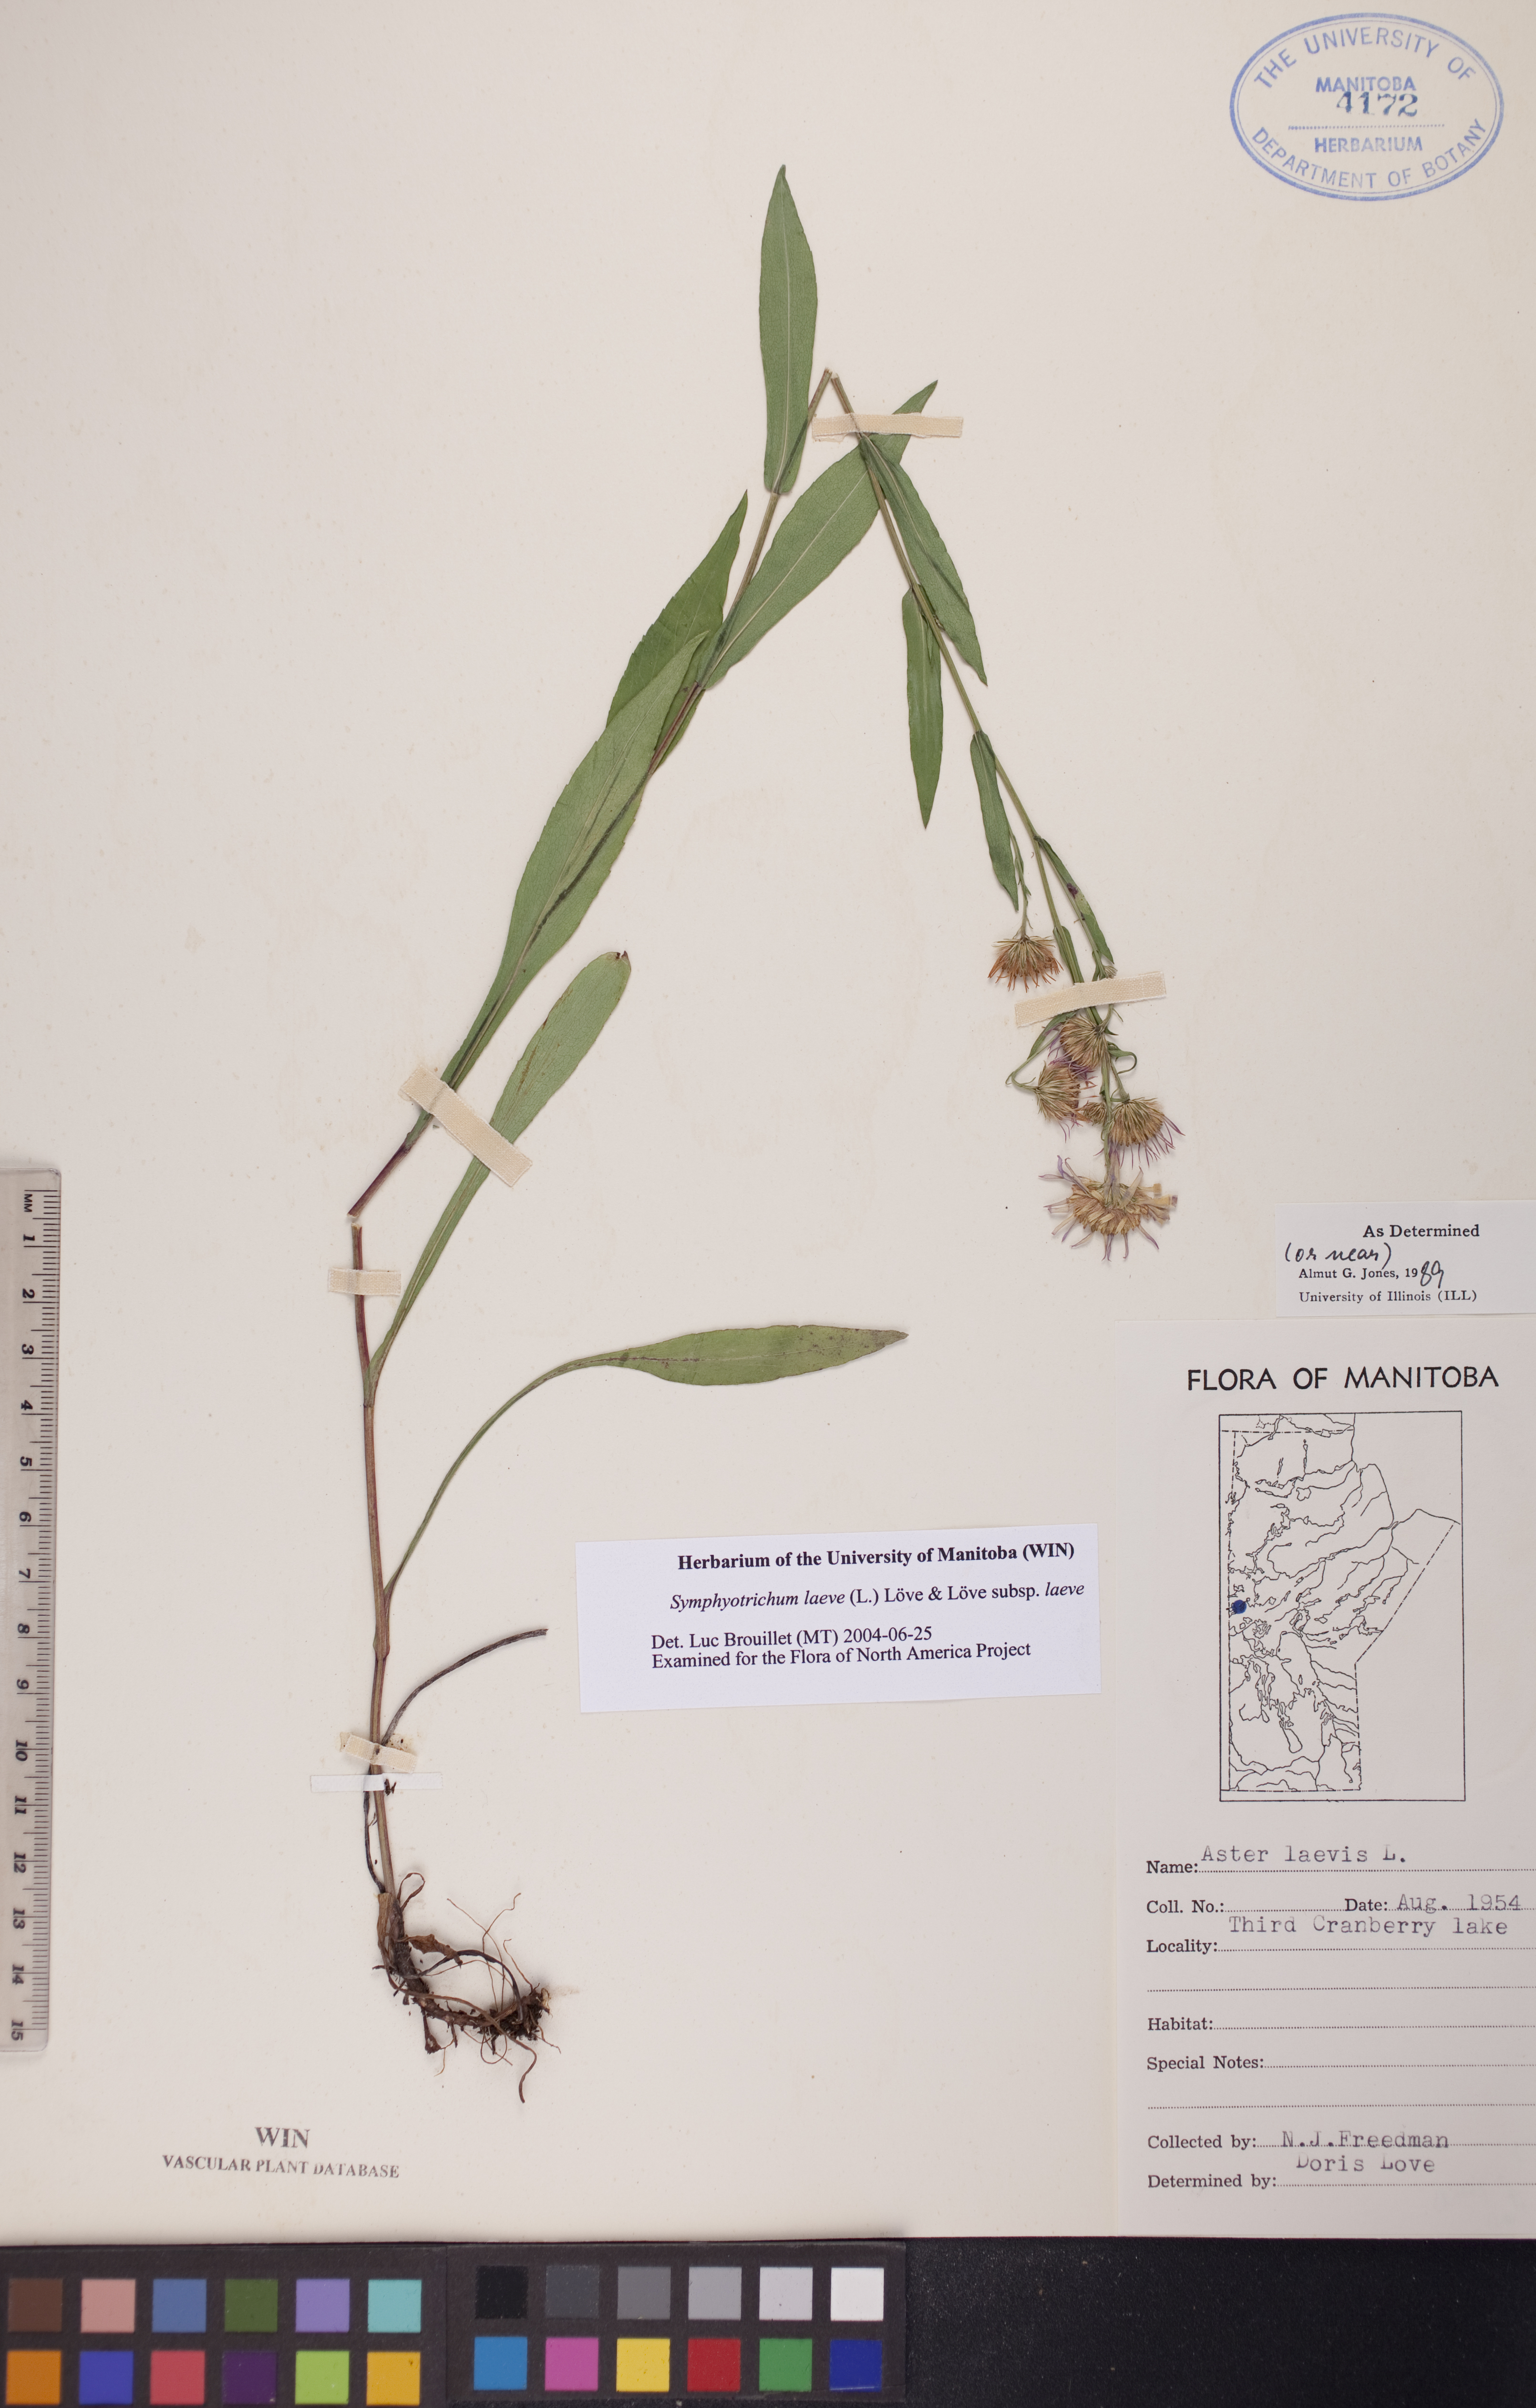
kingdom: Plantae
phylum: Tracheophyta
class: Magnoliopsida
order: Asterales
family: Asteraceae
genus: Symphyotrichum
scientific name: Symphyotrichum laeve
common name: Glaucous aster
